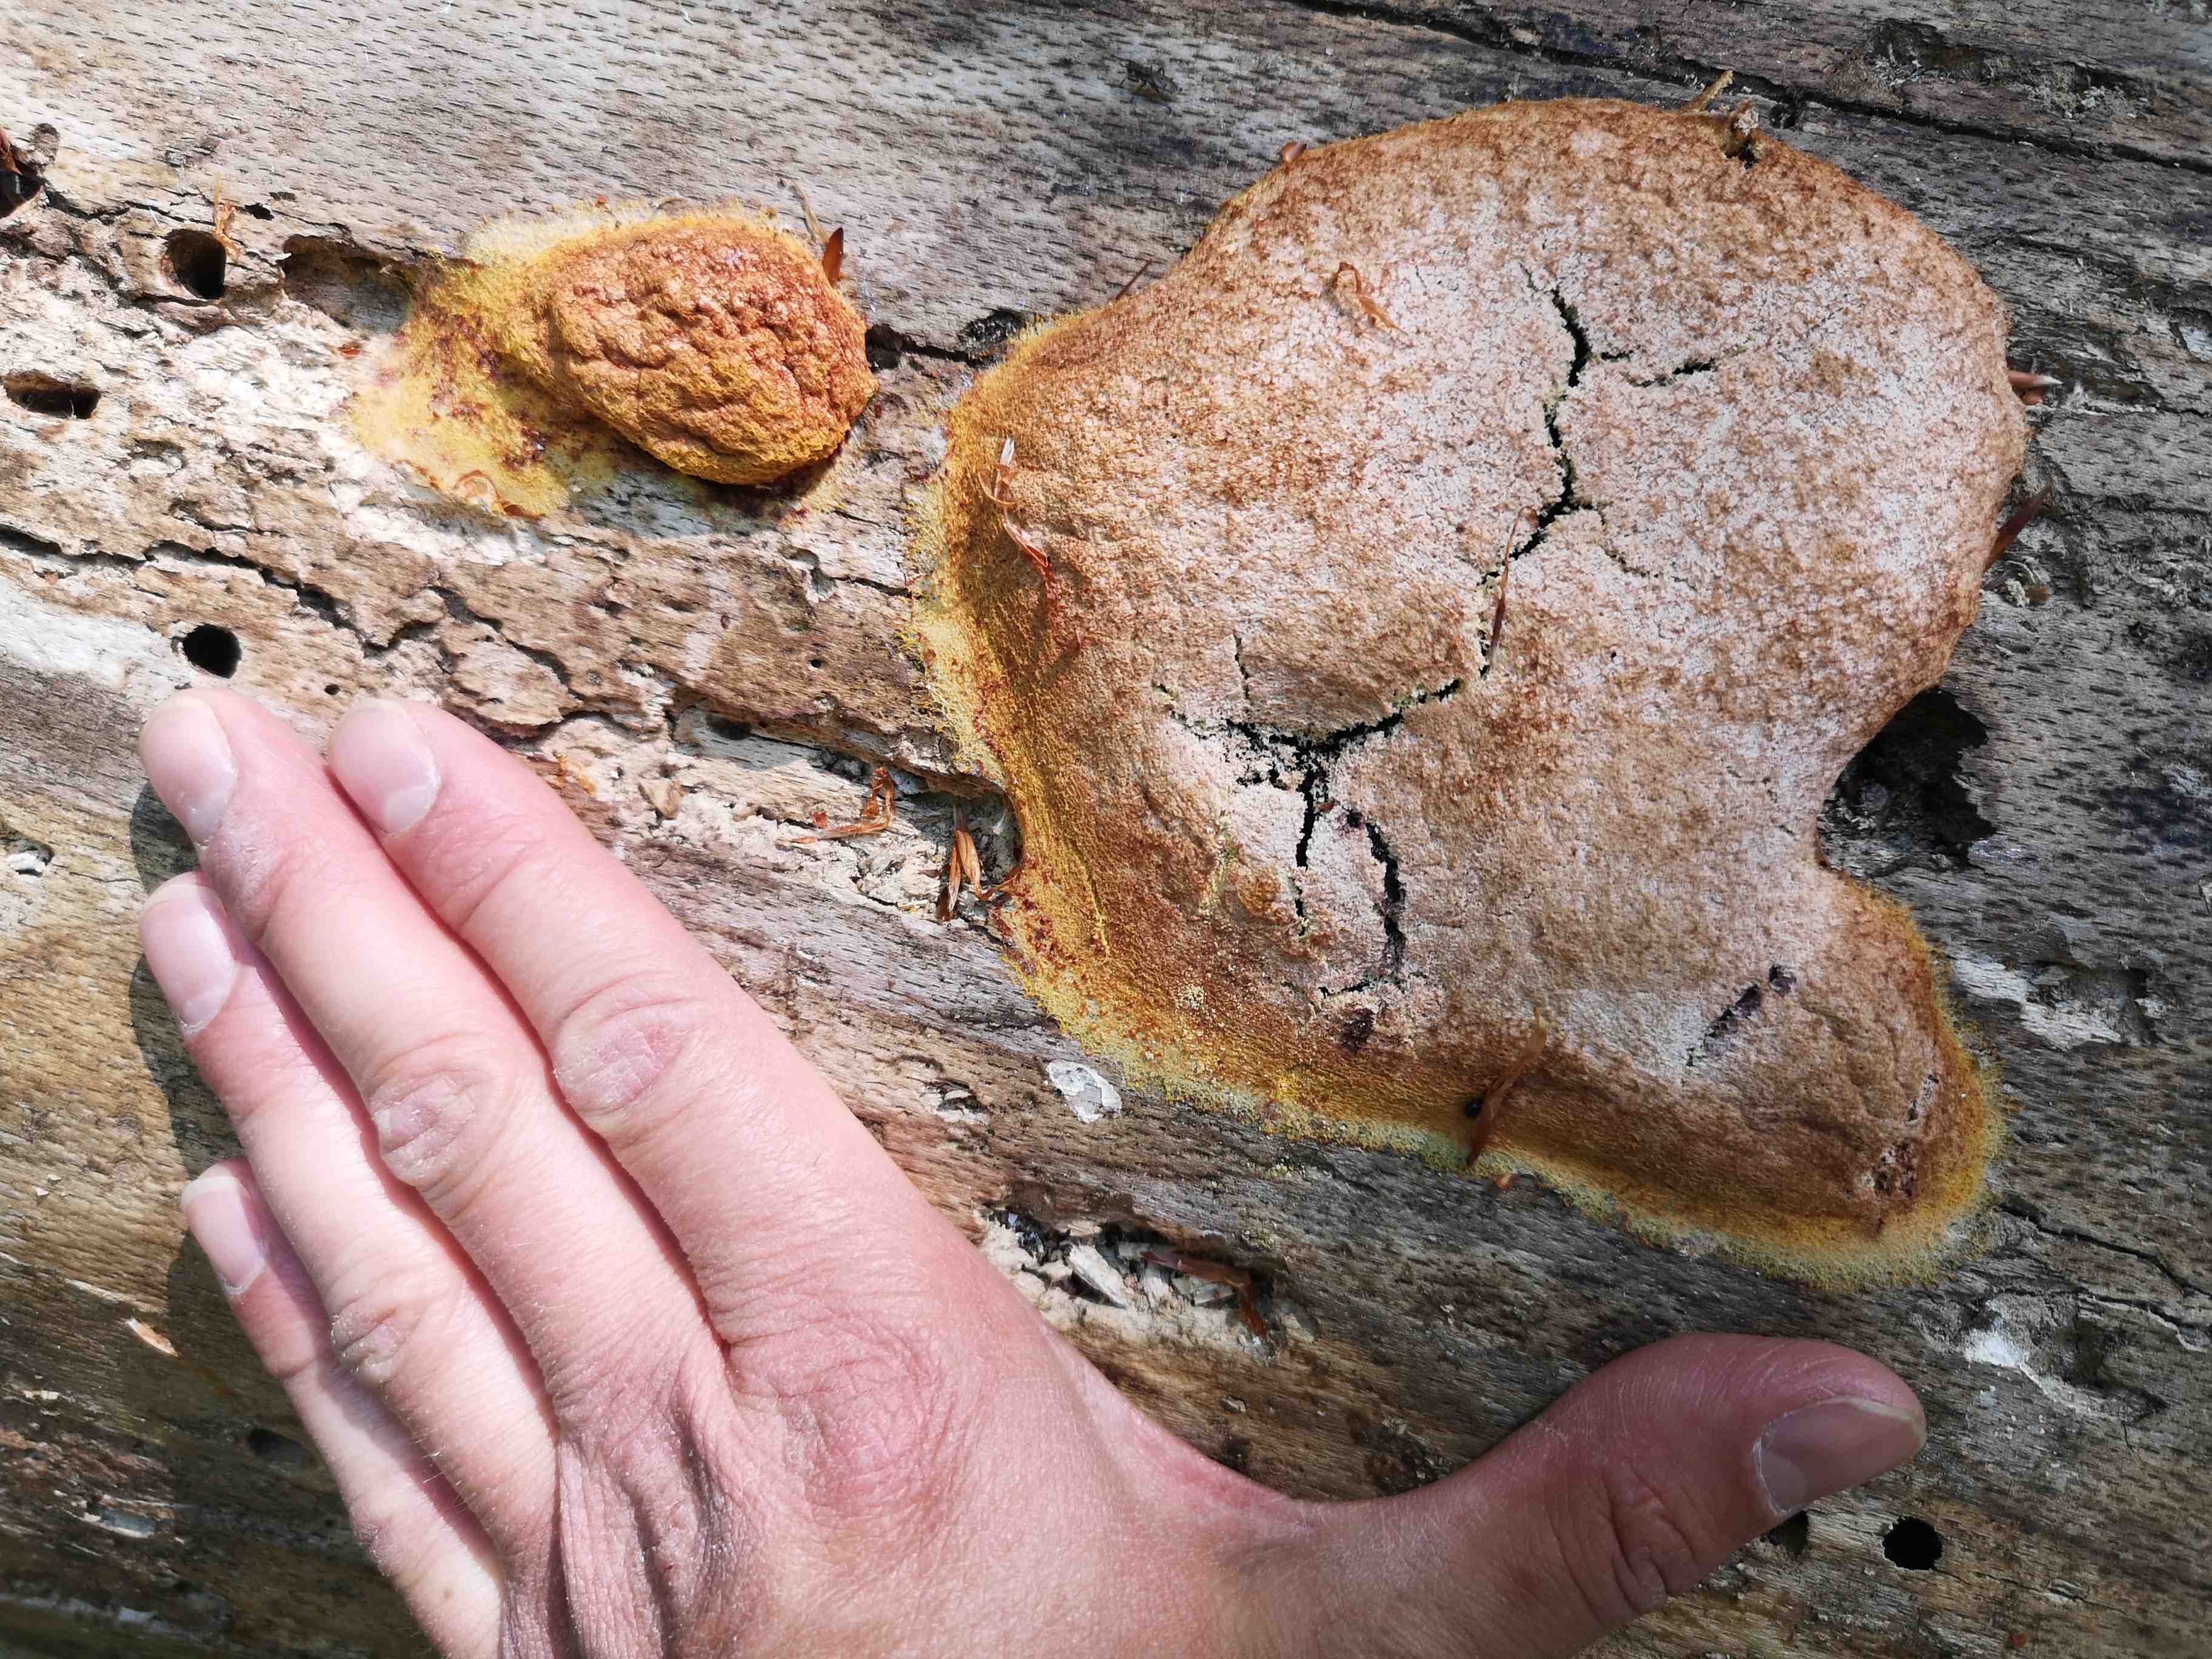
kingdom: Protozoa
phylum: Mycetozoa
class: Myxomycetes
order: Physarales
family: Physaraceae
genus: Fuligo
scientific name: Fuligo septica
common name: Dog vomit slime mold
